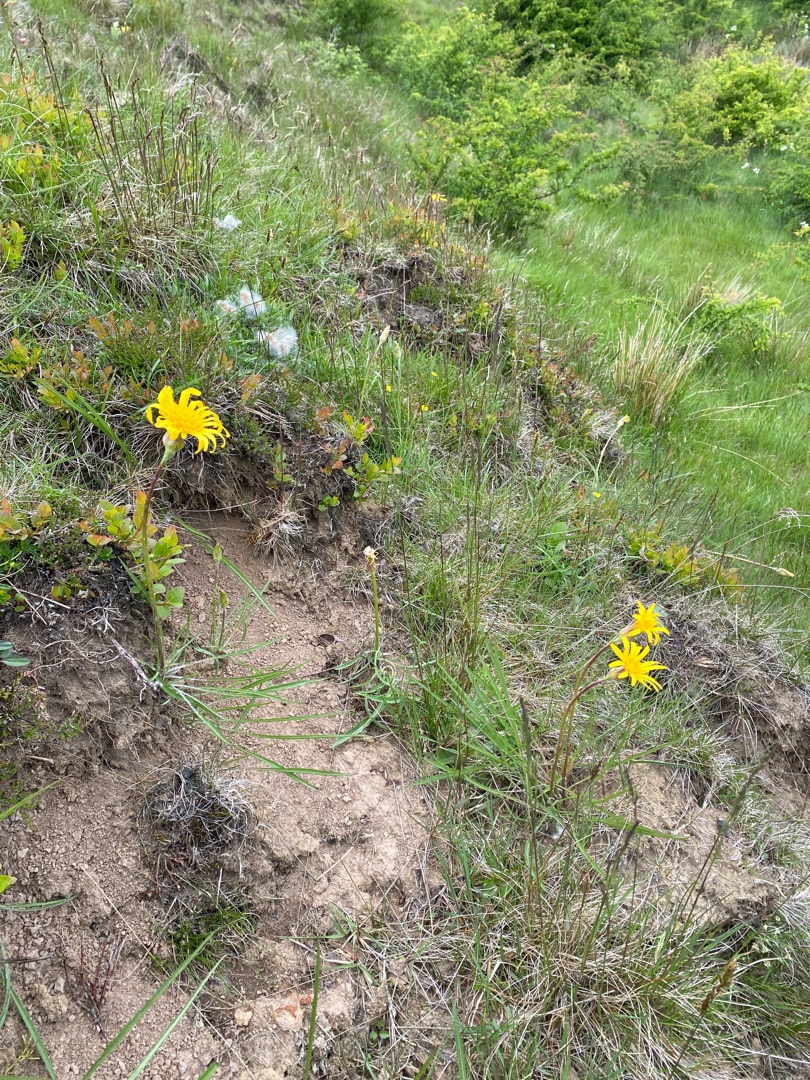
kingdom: Plantae
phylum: Tracheophyta
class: Magnoliopsida
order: Asterales
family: Asteraceae
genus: Scorzonera
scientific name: Scorzonera humilis
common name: Lav skorsoner
